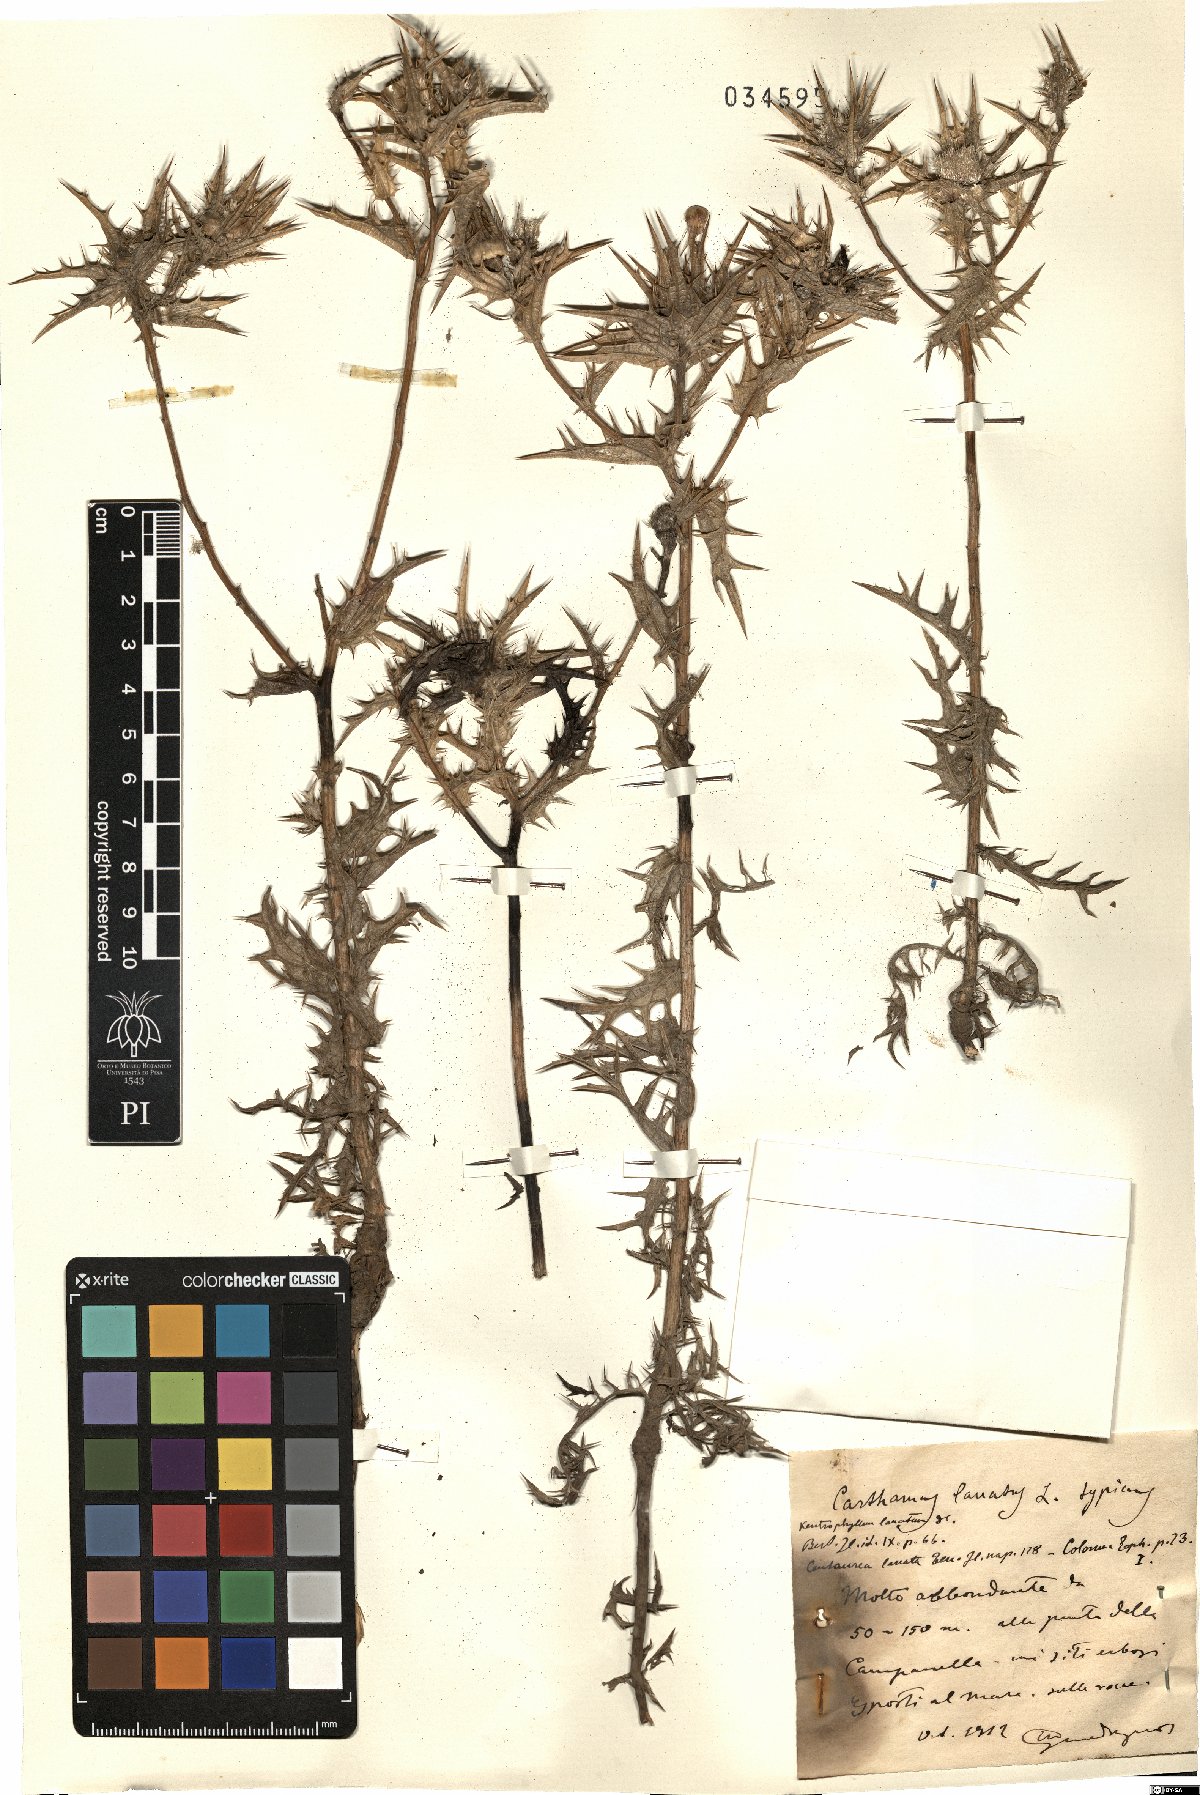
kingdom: Plantae
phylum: Tracheophyta
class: Magnoliopsida
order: Asterales
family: Asteraceae
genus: Carthamus
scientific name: Carthamus lanatus
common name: Downy safflower
